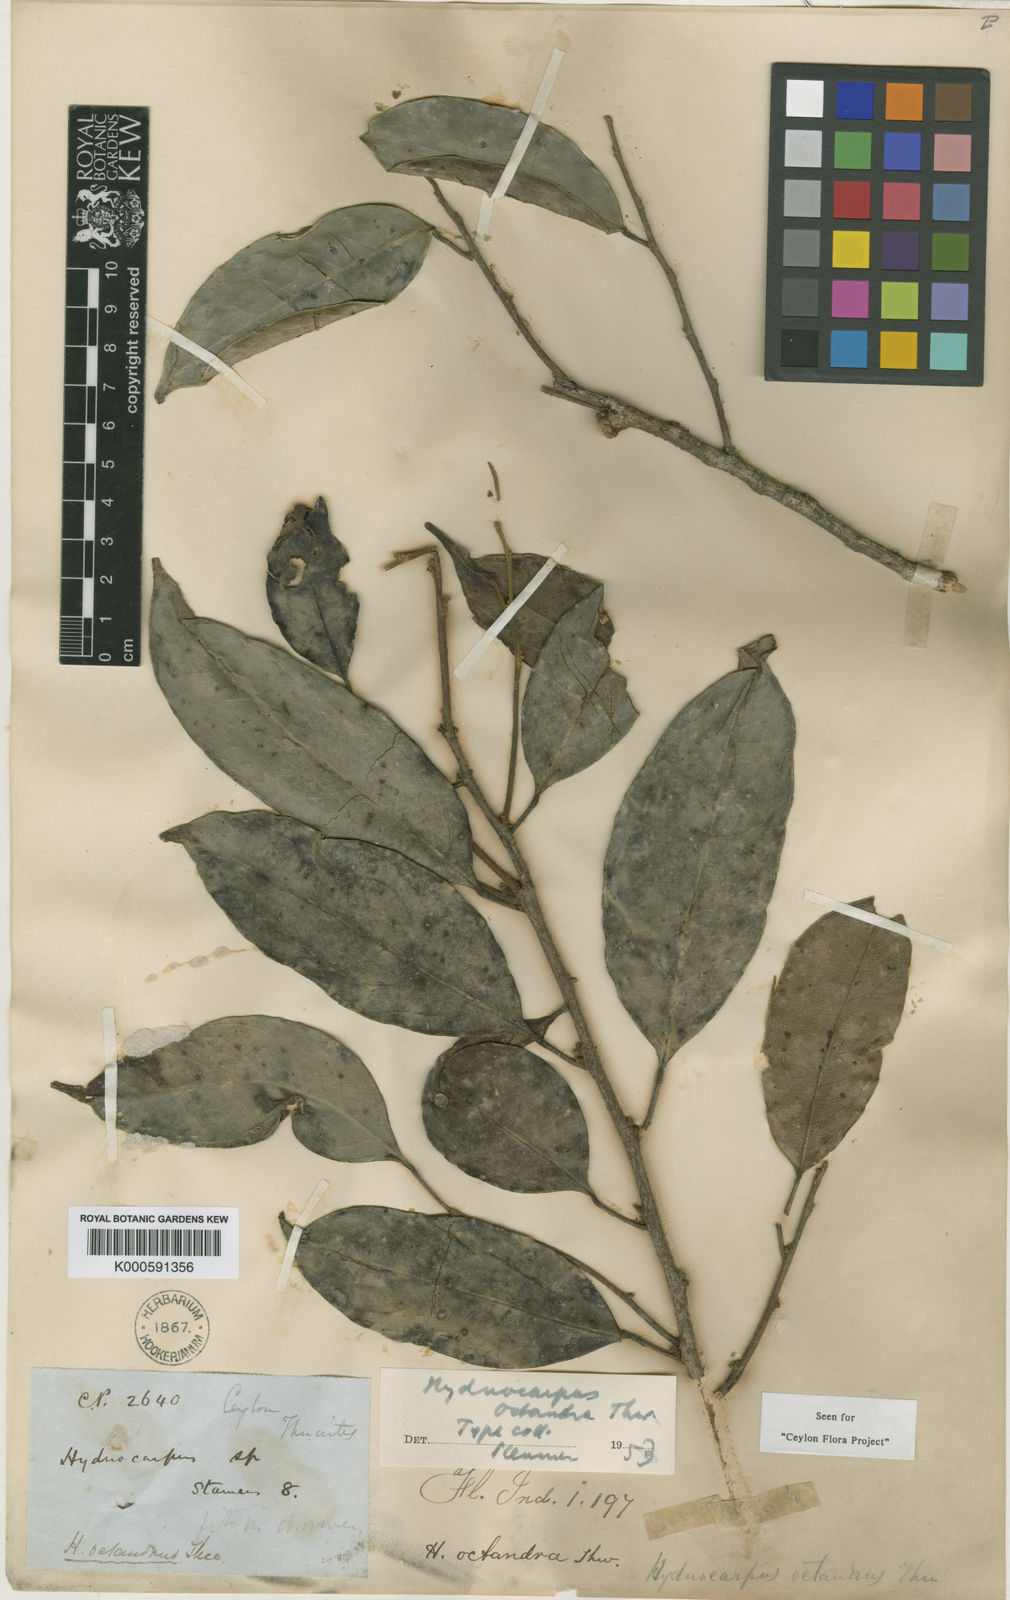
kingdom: Plantae
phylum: Tracheophyta
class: Magnoliopsida
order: Malpighiales
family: Achariaceae
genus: Hydnocarpus
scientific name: Hydnocarpus octandrus
